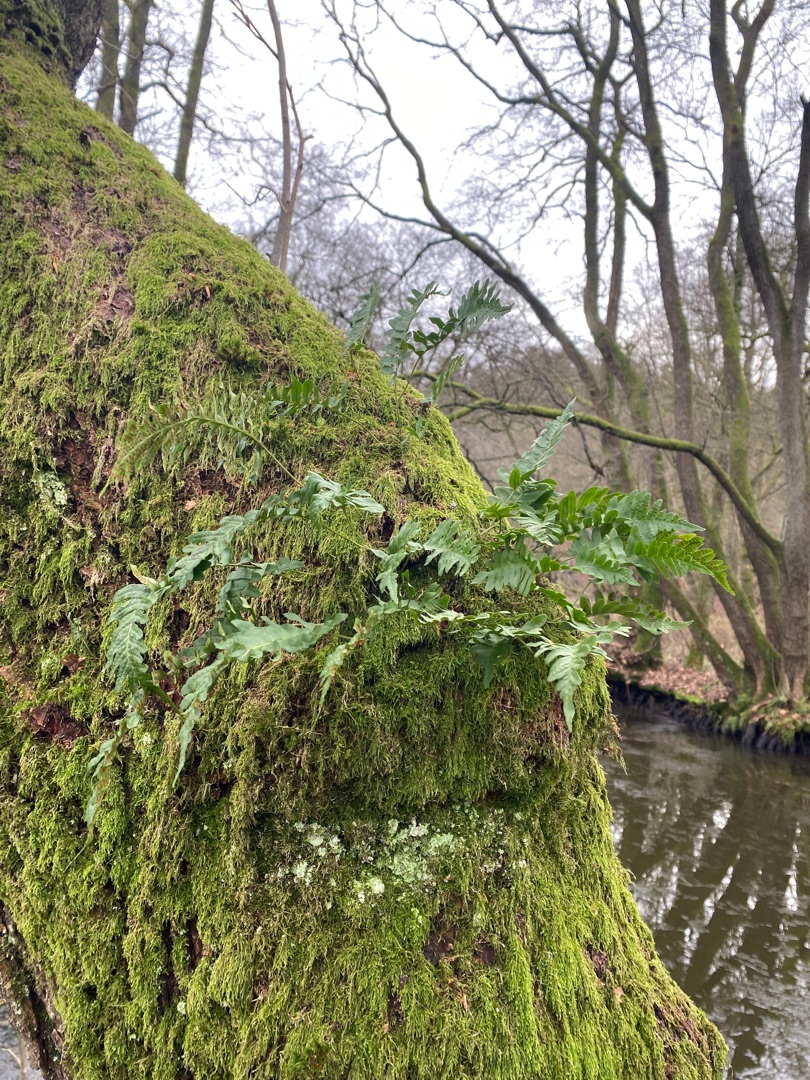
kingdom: Plantae
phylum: Tracheophyta
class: Polypodiopsida
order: Polypodiales
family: Polypodiaceae
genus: Polypodium
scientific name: Polypodium vulgare
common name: Almindelig engelsød
